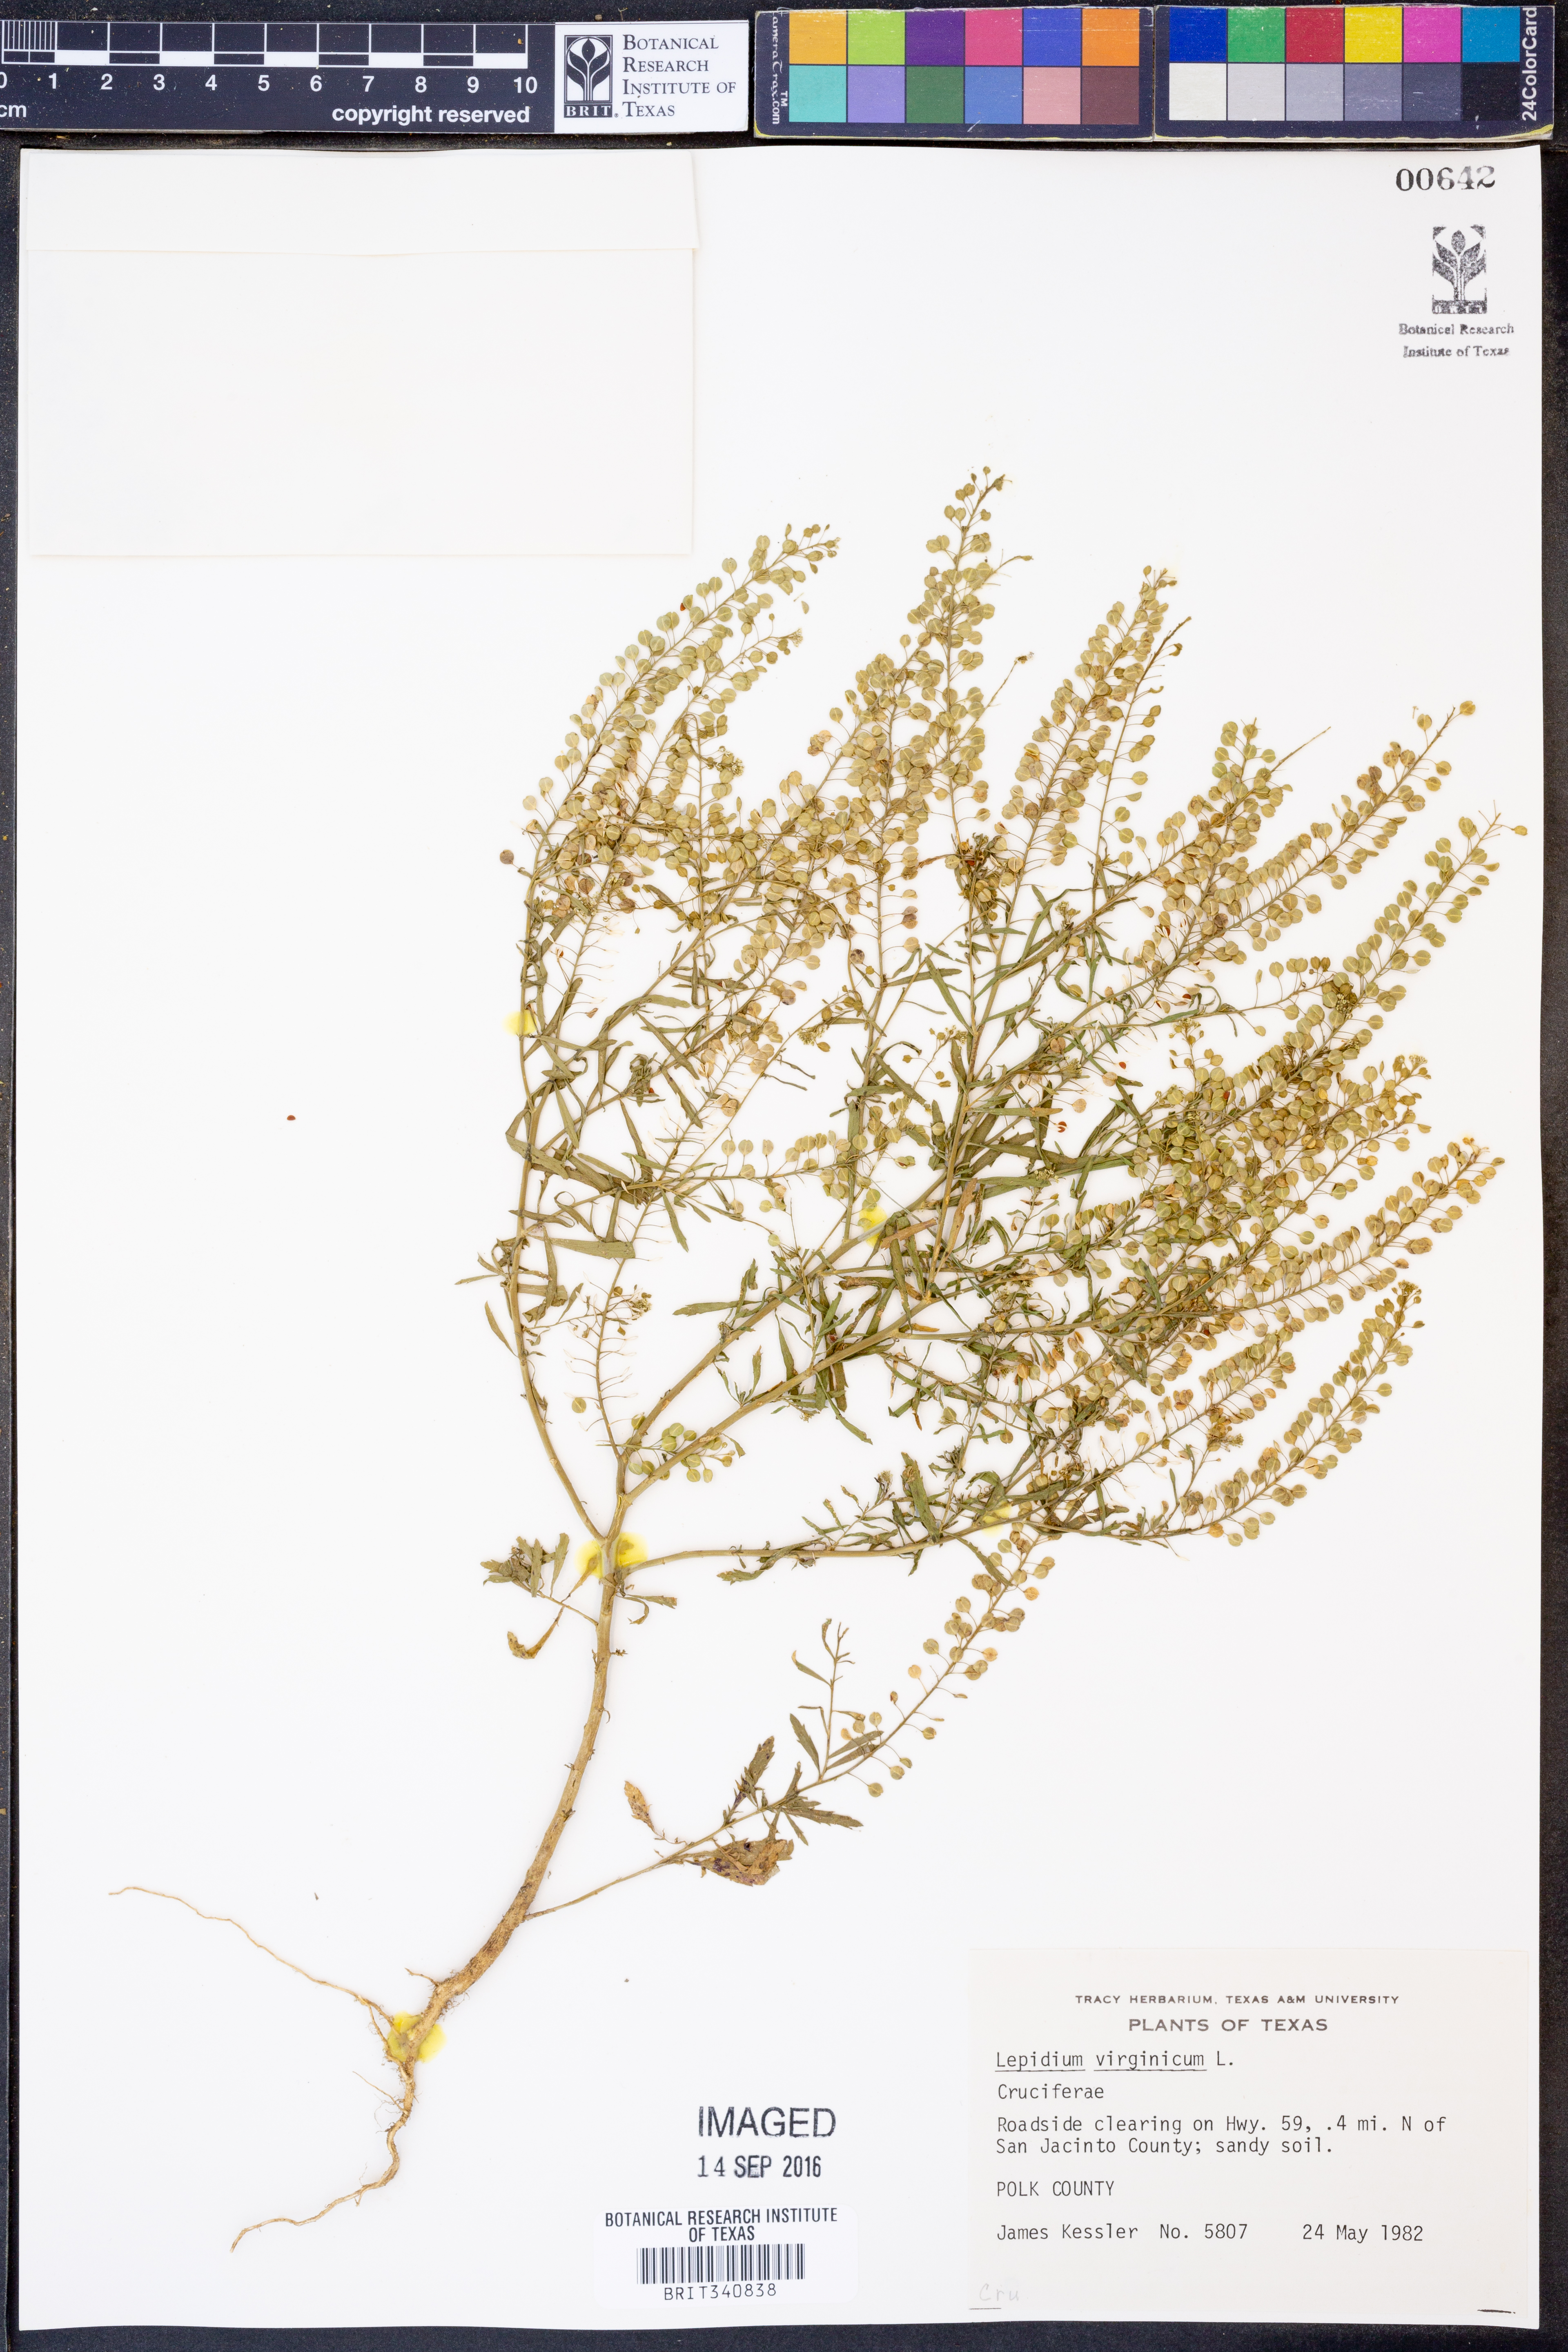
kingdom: Plantae
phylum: Tracheophyta
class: Magnoliopsida
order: Brassicales
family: Brassicaceae
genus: Lepidium
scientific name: Lepidium virginicum
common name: Least pepperwort
